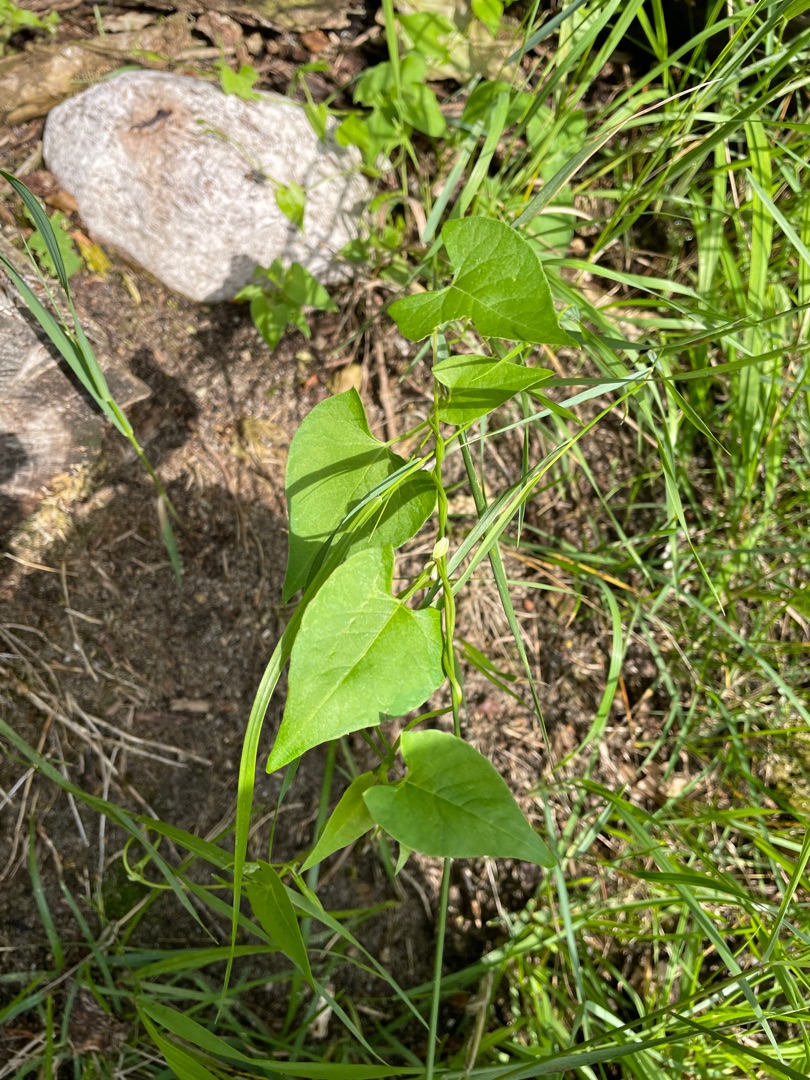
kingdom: Plantae
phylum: Tracheophyta
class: Magnoliopsida
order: Caryophyllales
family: Polygonaceae
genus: Fallopia
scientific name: Fallopia convolvulus
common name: Snerle-pileurt
